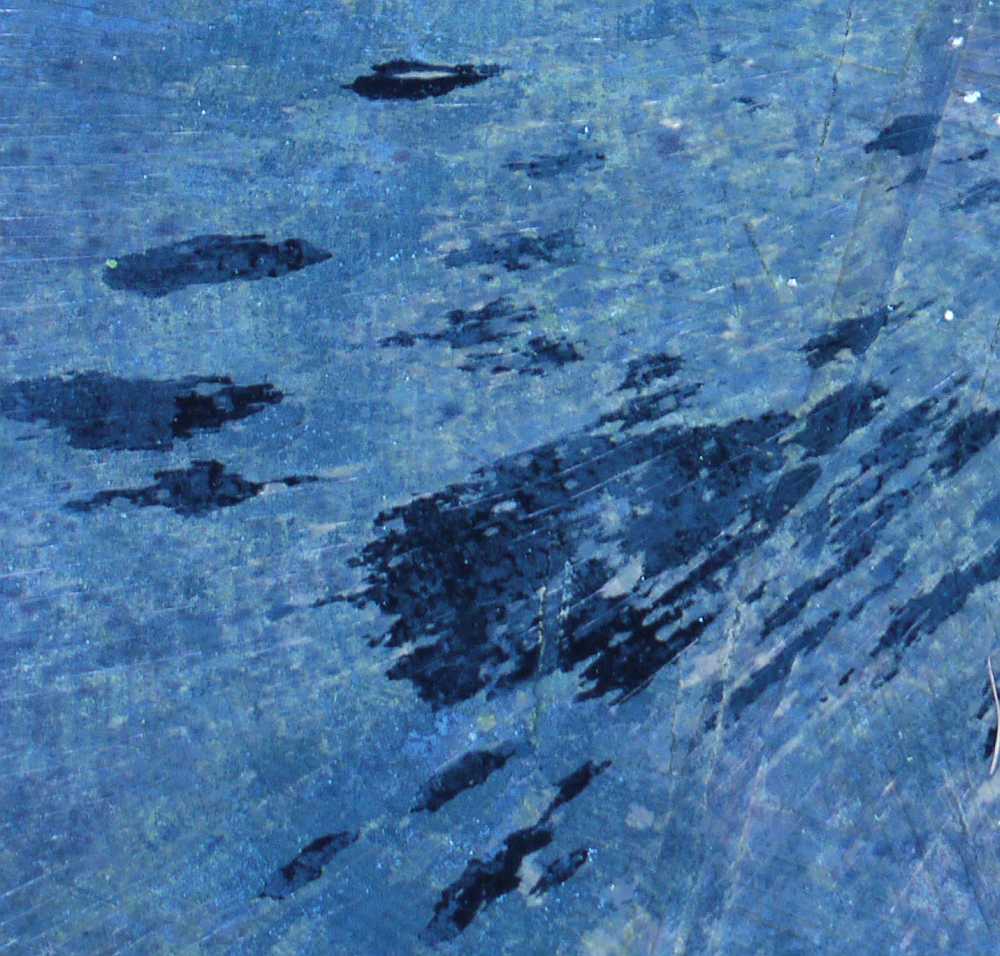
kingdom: Fungi
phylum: Ascomycota
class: Leotiomycetes
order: Helotiales
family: Helotiaceae
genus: Bispora
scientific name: Bispora pallescens
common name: måtte-snitskive
